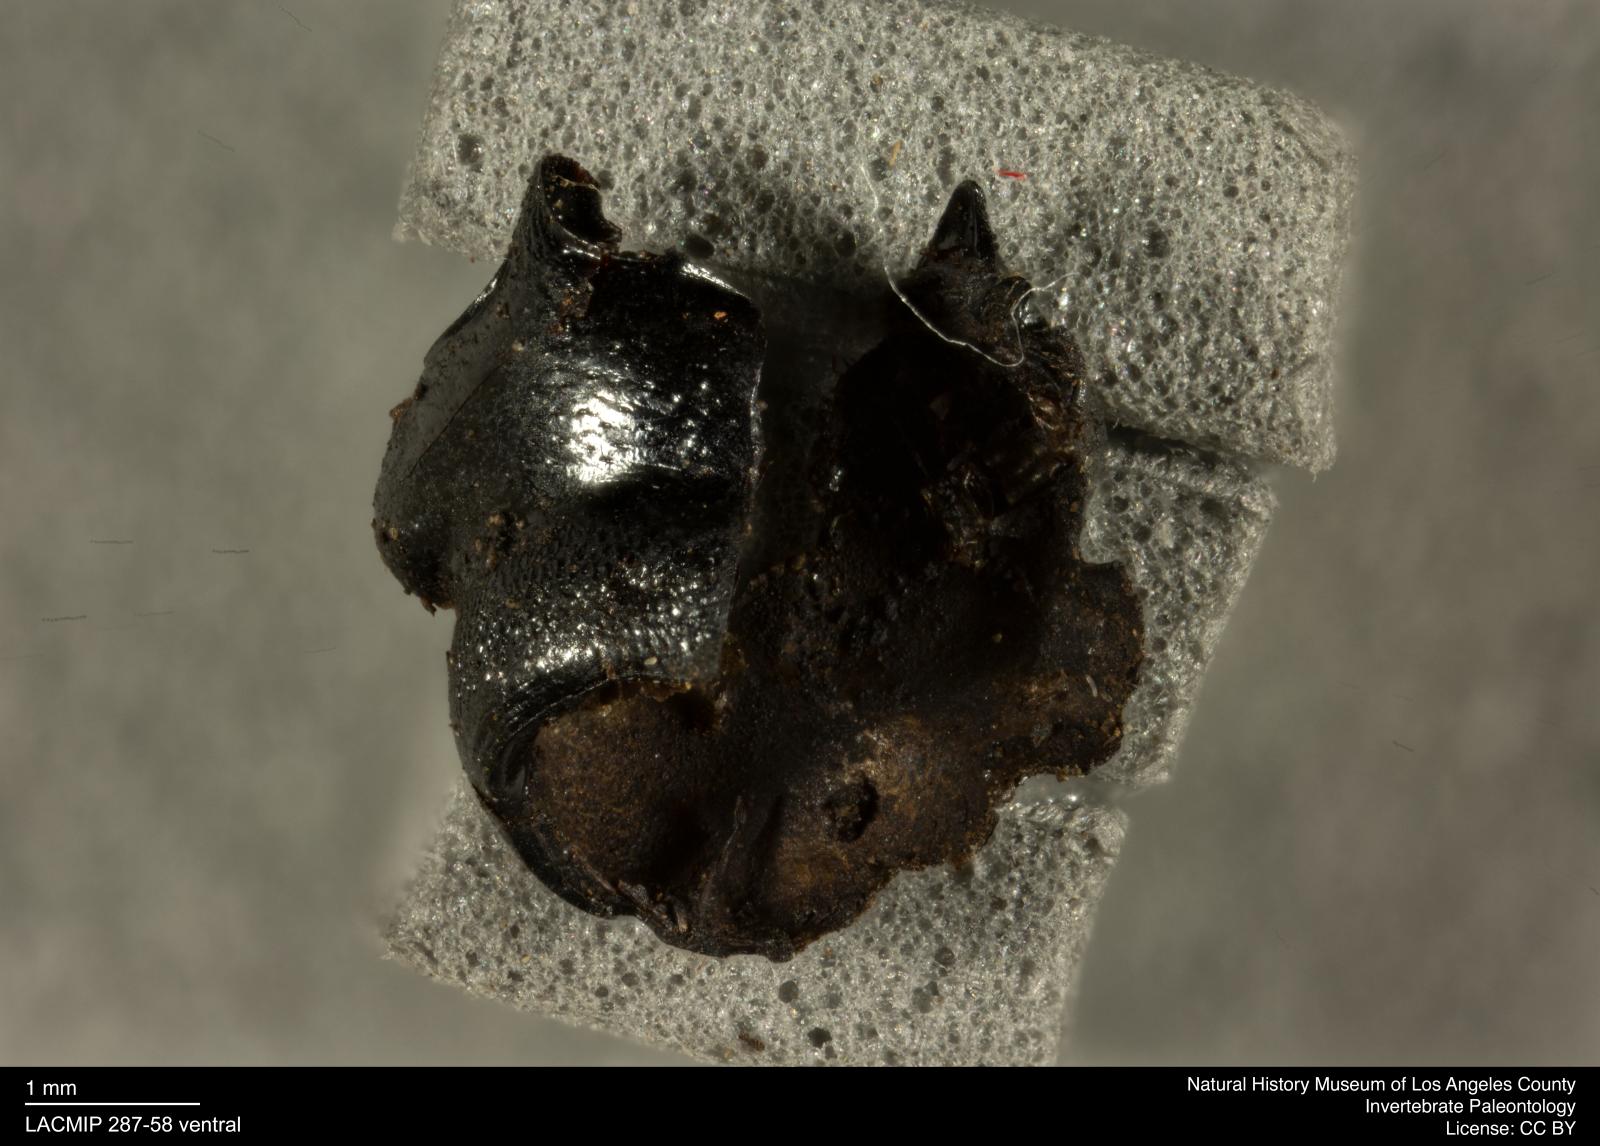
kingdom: Animalia
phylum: Arthropoda
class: Insecta
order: Coleoptera
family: Staphylinidae
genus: Nicrophorus
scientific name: Nicrophorus marginatus
